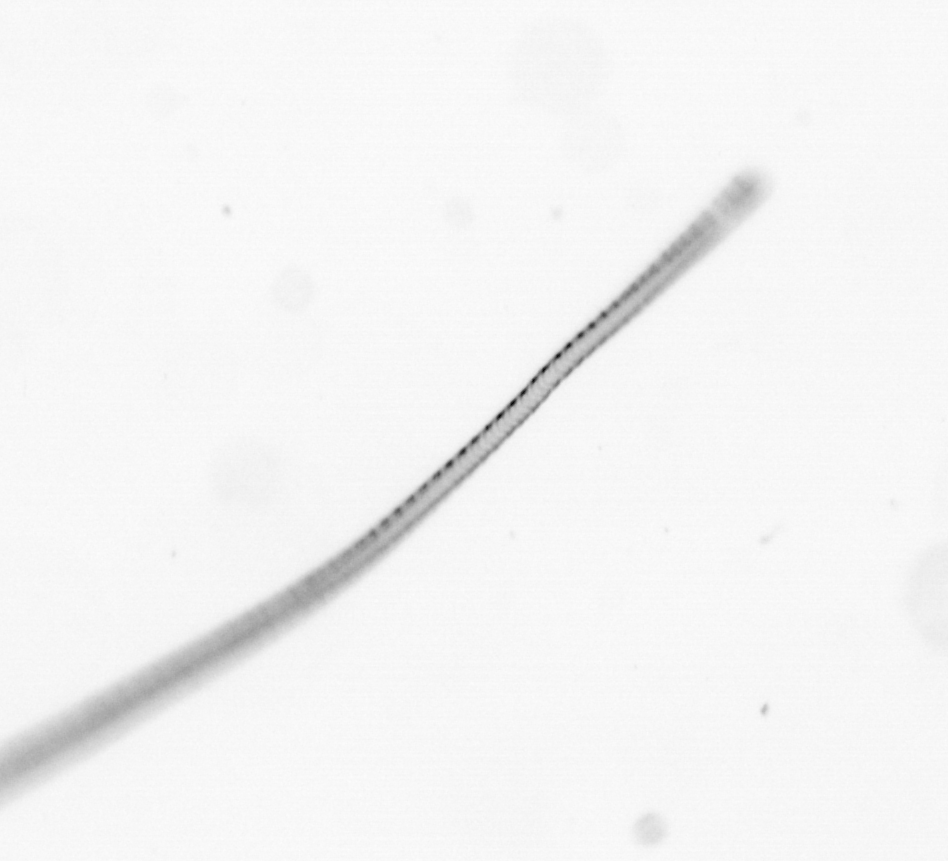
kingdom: Chromista
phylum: Ochrophyta
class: Bacillariophyceae
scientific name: Bacillariophyceae
